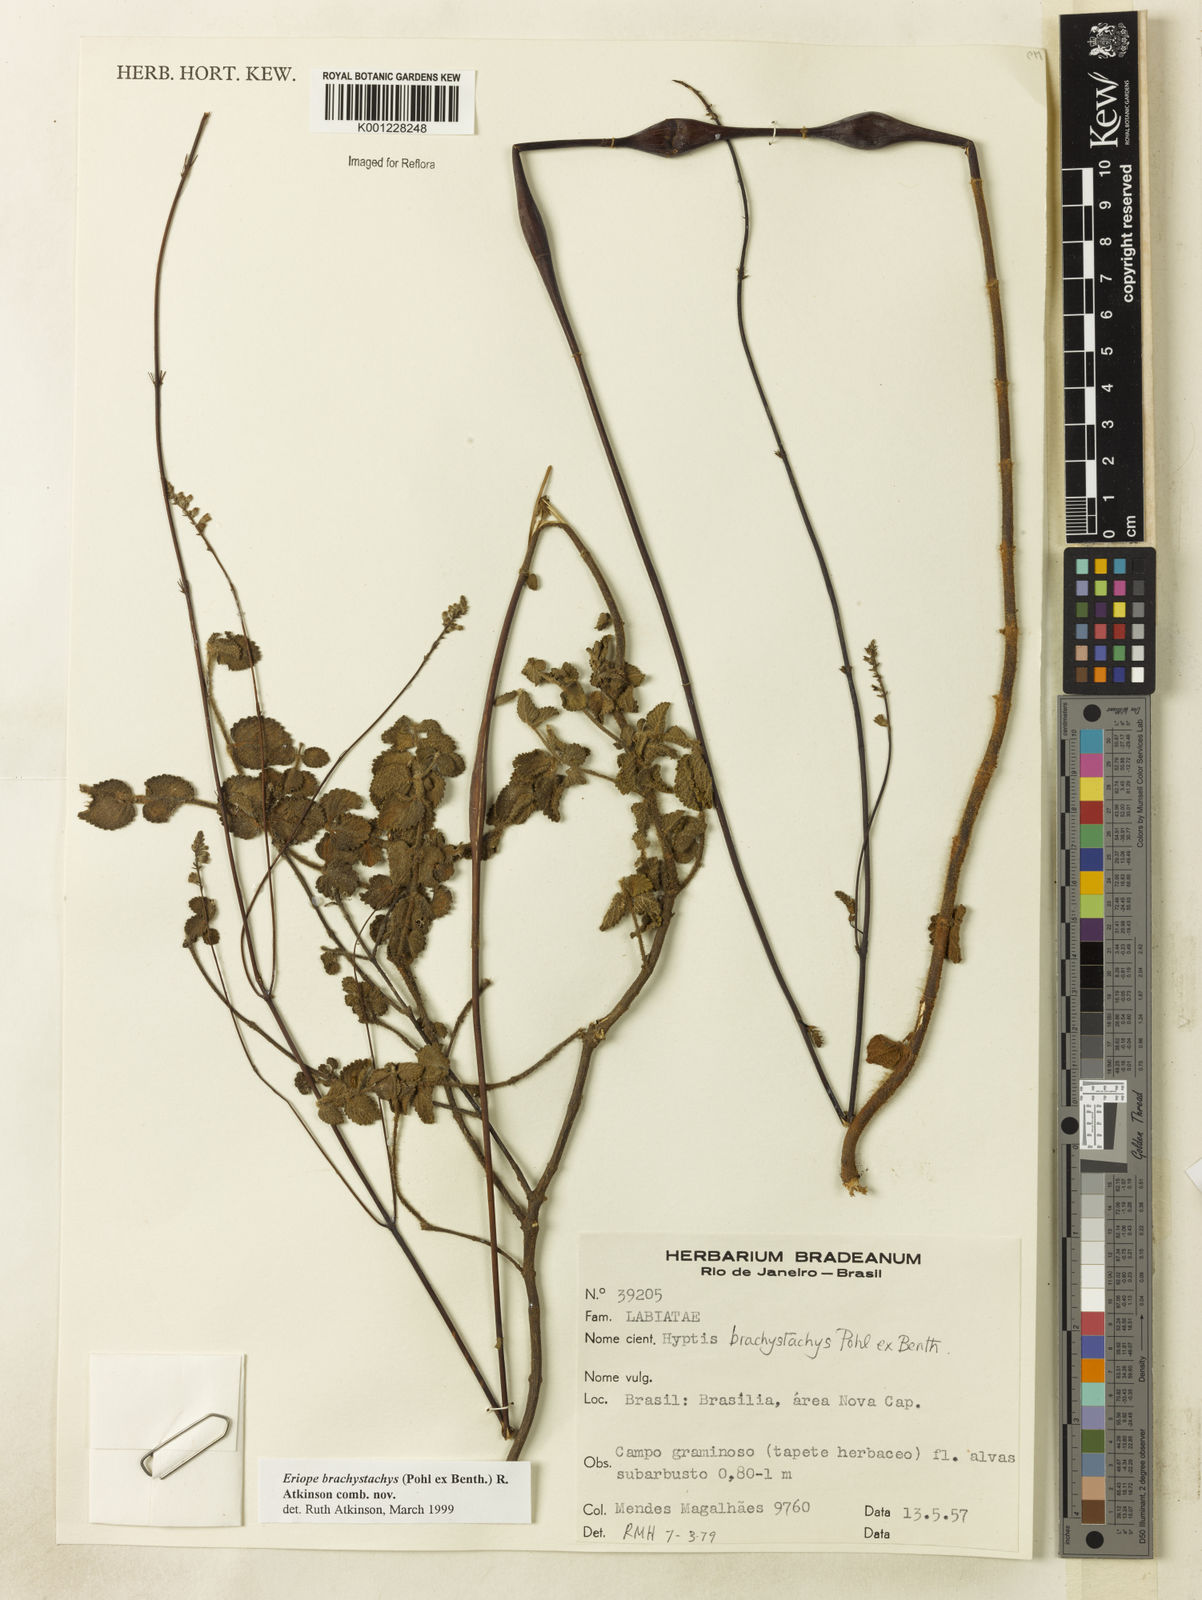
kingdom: Plantae
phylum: Tracheophyta
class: Magnoliopsida
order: Lamiales
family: Lamiaceae
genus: Hypenia
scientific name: Hypenia brachystachys
